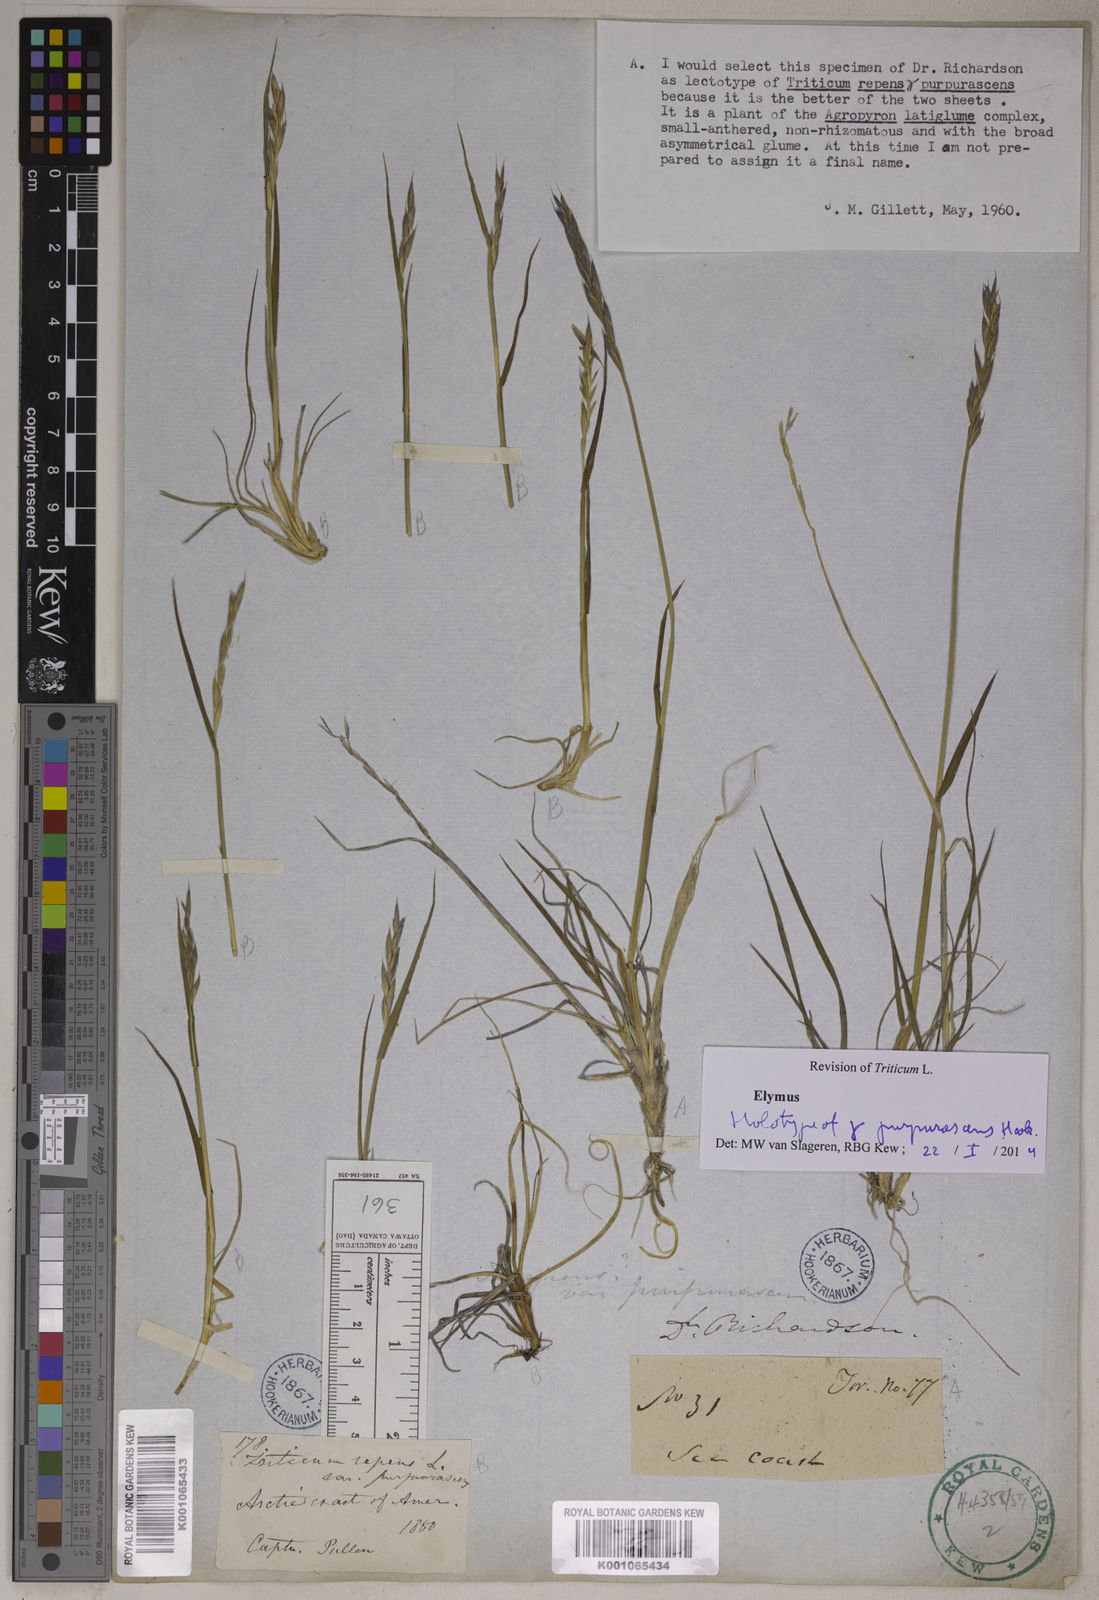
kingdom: Plantae
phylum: Tracheophyta
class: Liliopsida
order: Poales
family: Poaceae
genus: Elymus
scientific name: Elymus repens
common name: Quackgrass
